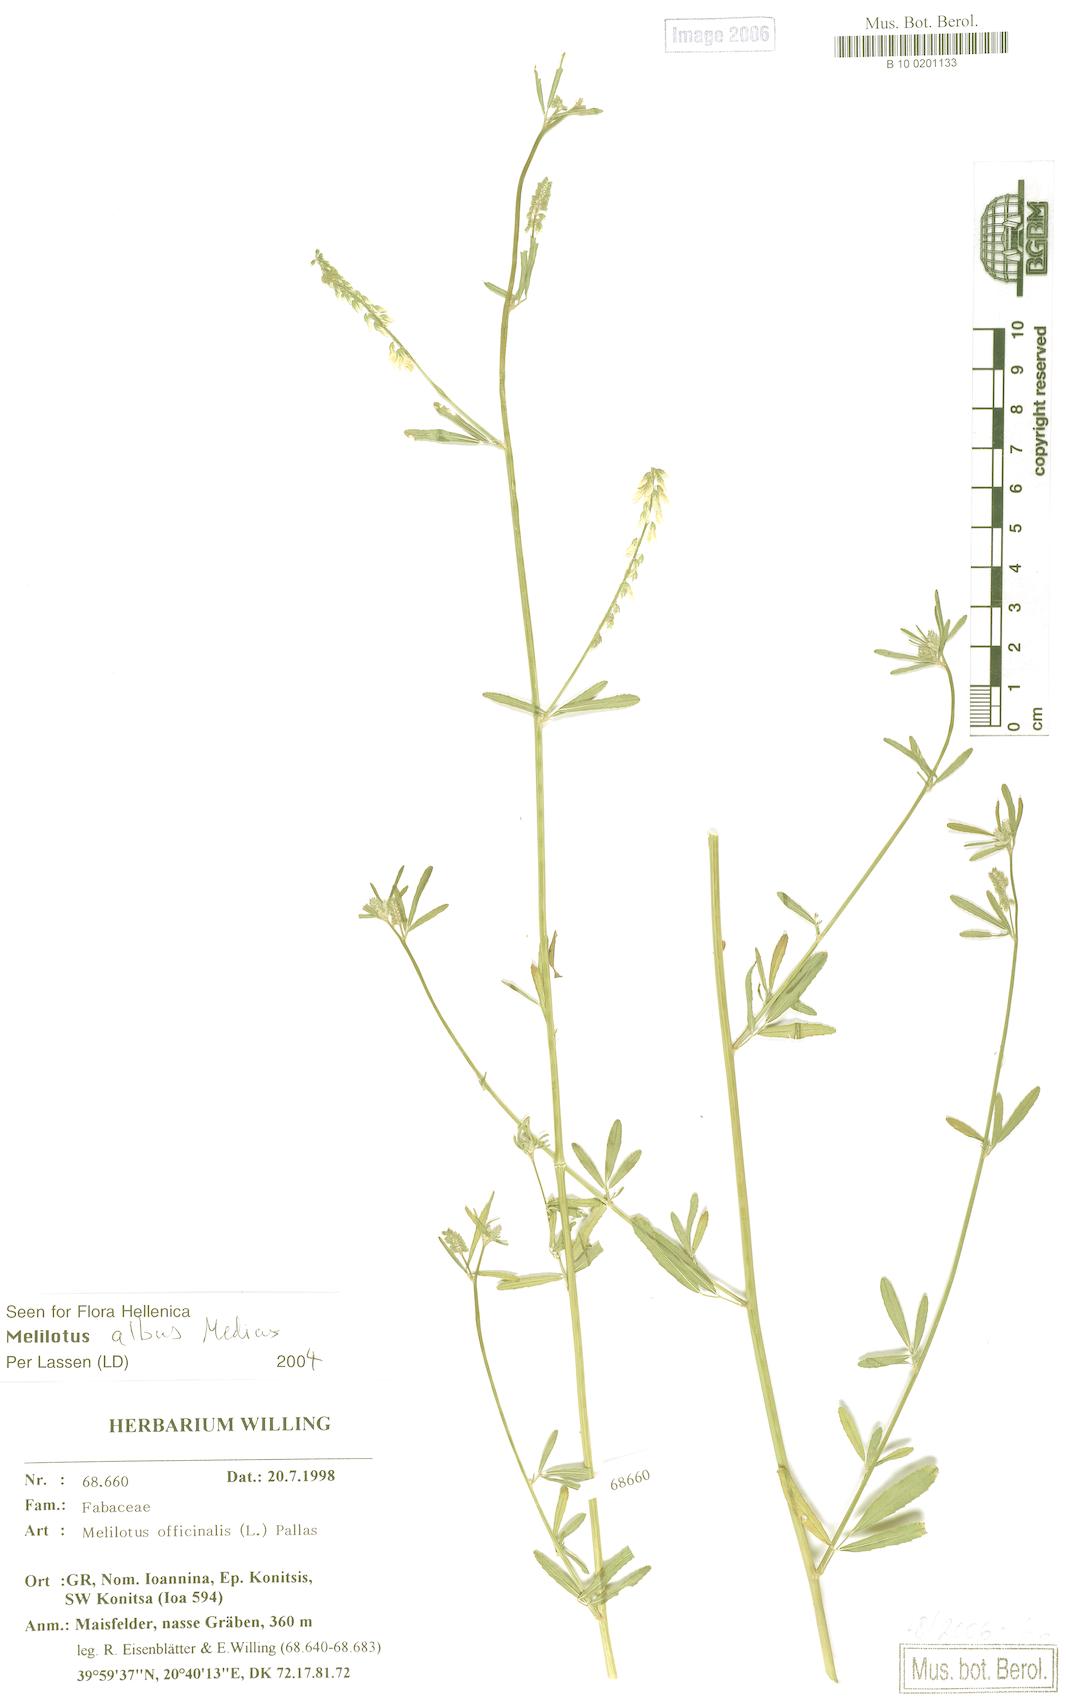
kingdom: Plantae
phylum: Tracheophyta
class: Magnoliopsida
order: Fabales
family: Fabaceae
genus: Melilotus
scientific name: Melilotus officinalis
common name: Sweetclover
